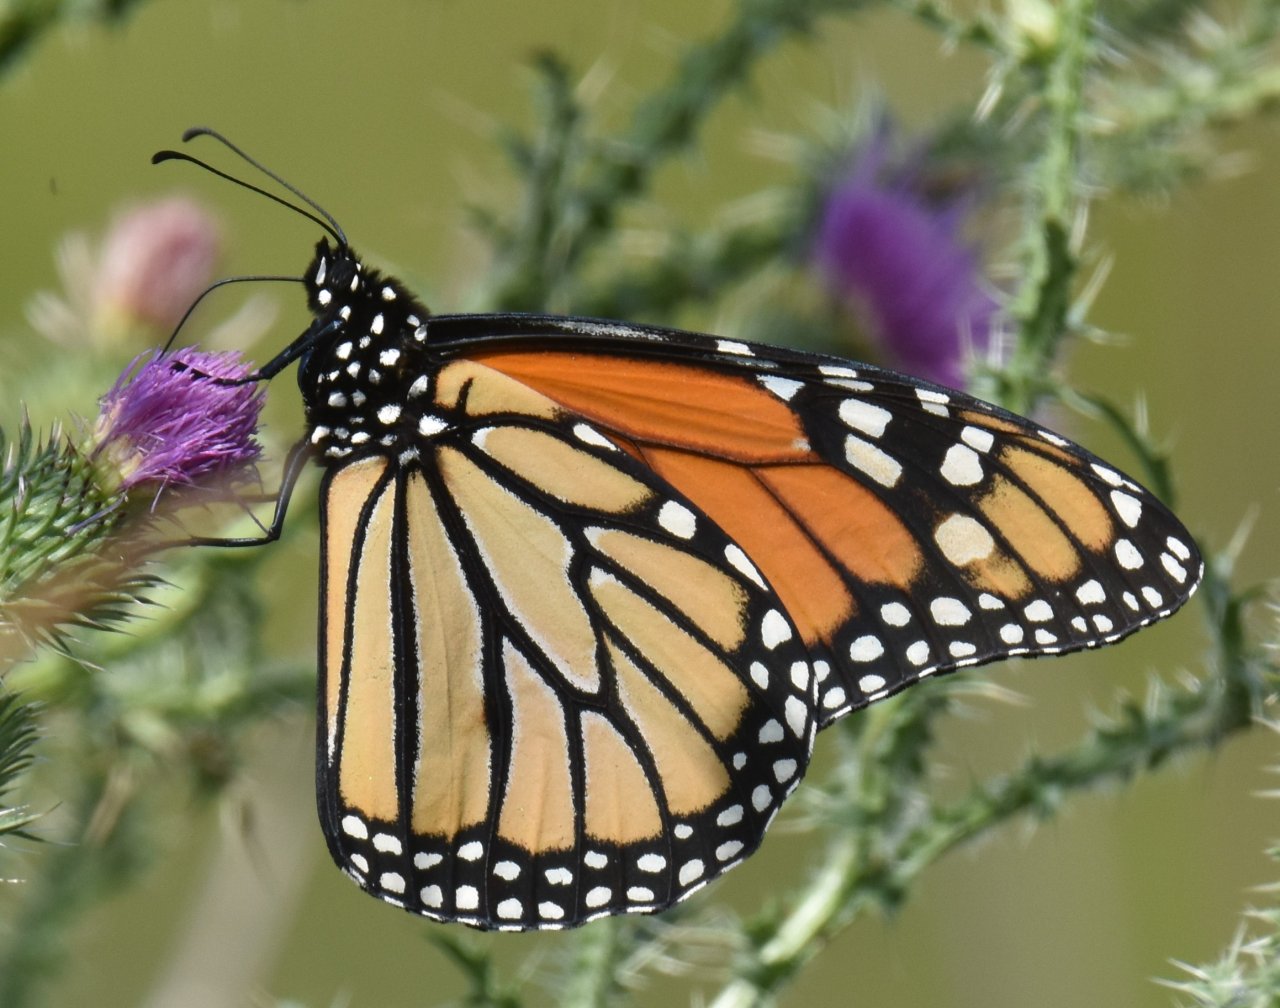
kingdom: Animalia
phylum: Arthropoda
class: Insecta
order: Lepidoptera
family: Nymphalidae
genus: Danaus
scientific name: Danaus plexippus
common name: Monarch
